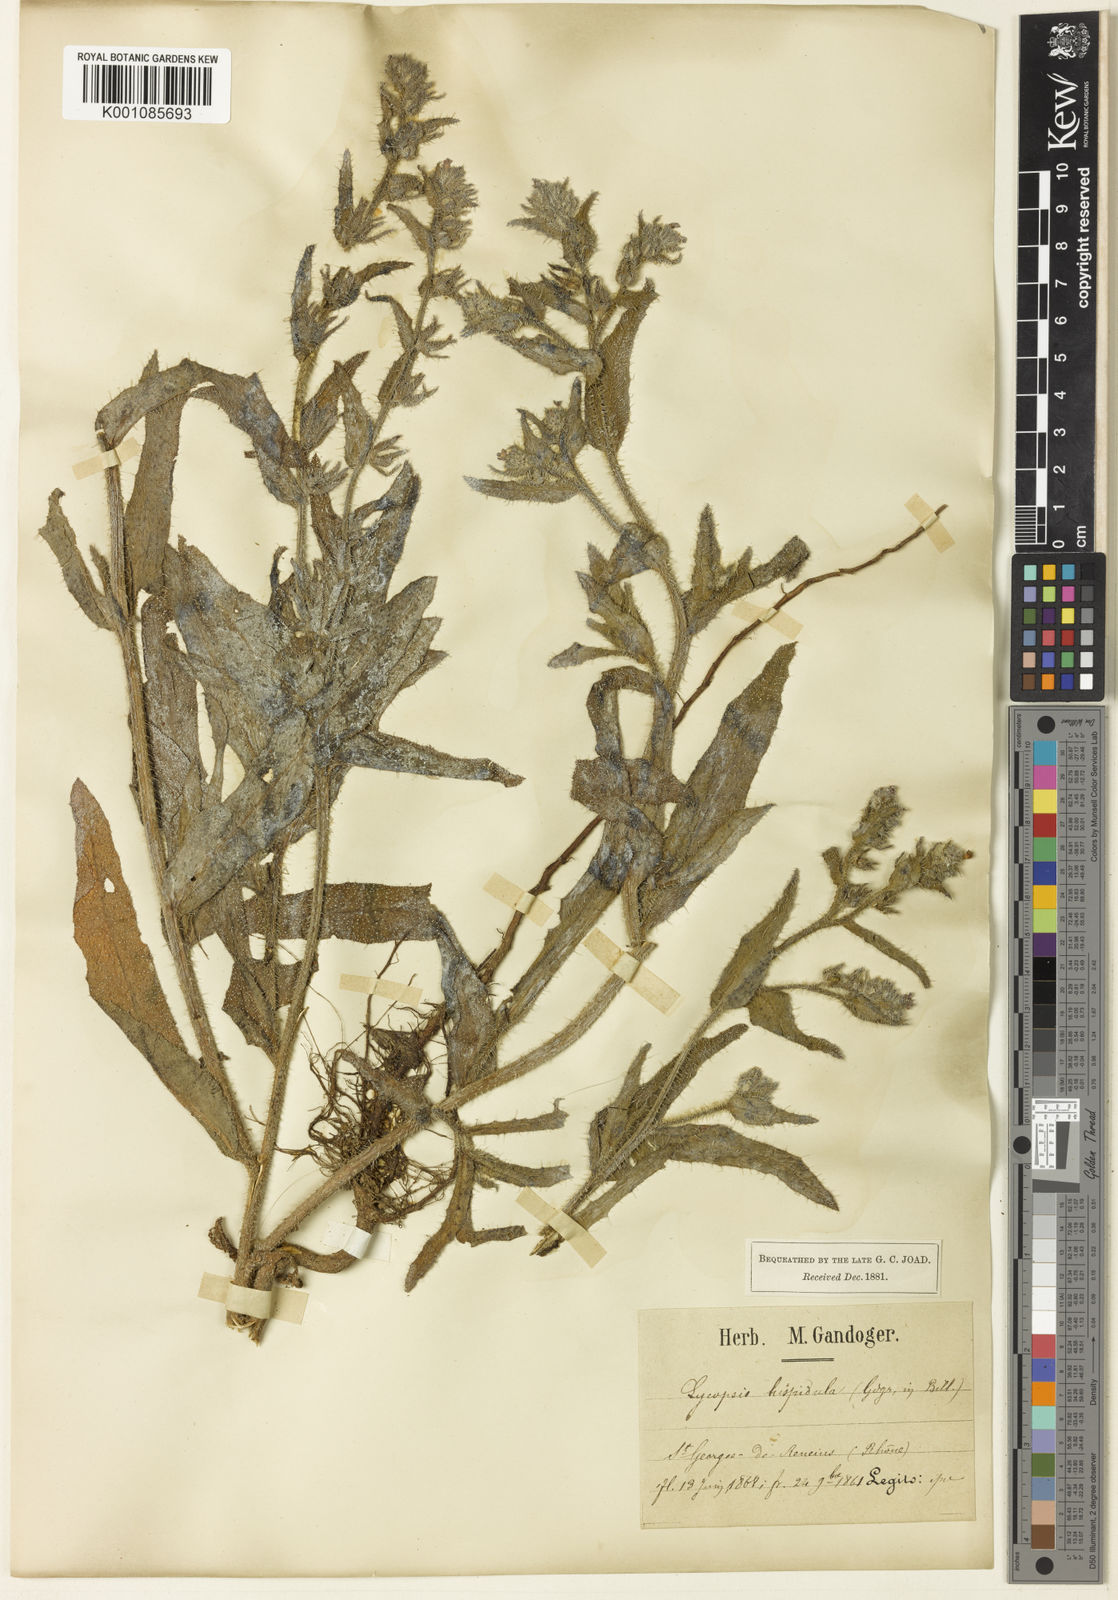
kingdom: Plantae
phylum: Tracheophyta
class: Magnoliopsida
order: Boraginales
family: Boraginaceae
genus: Anchusa
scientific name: Anchusa
